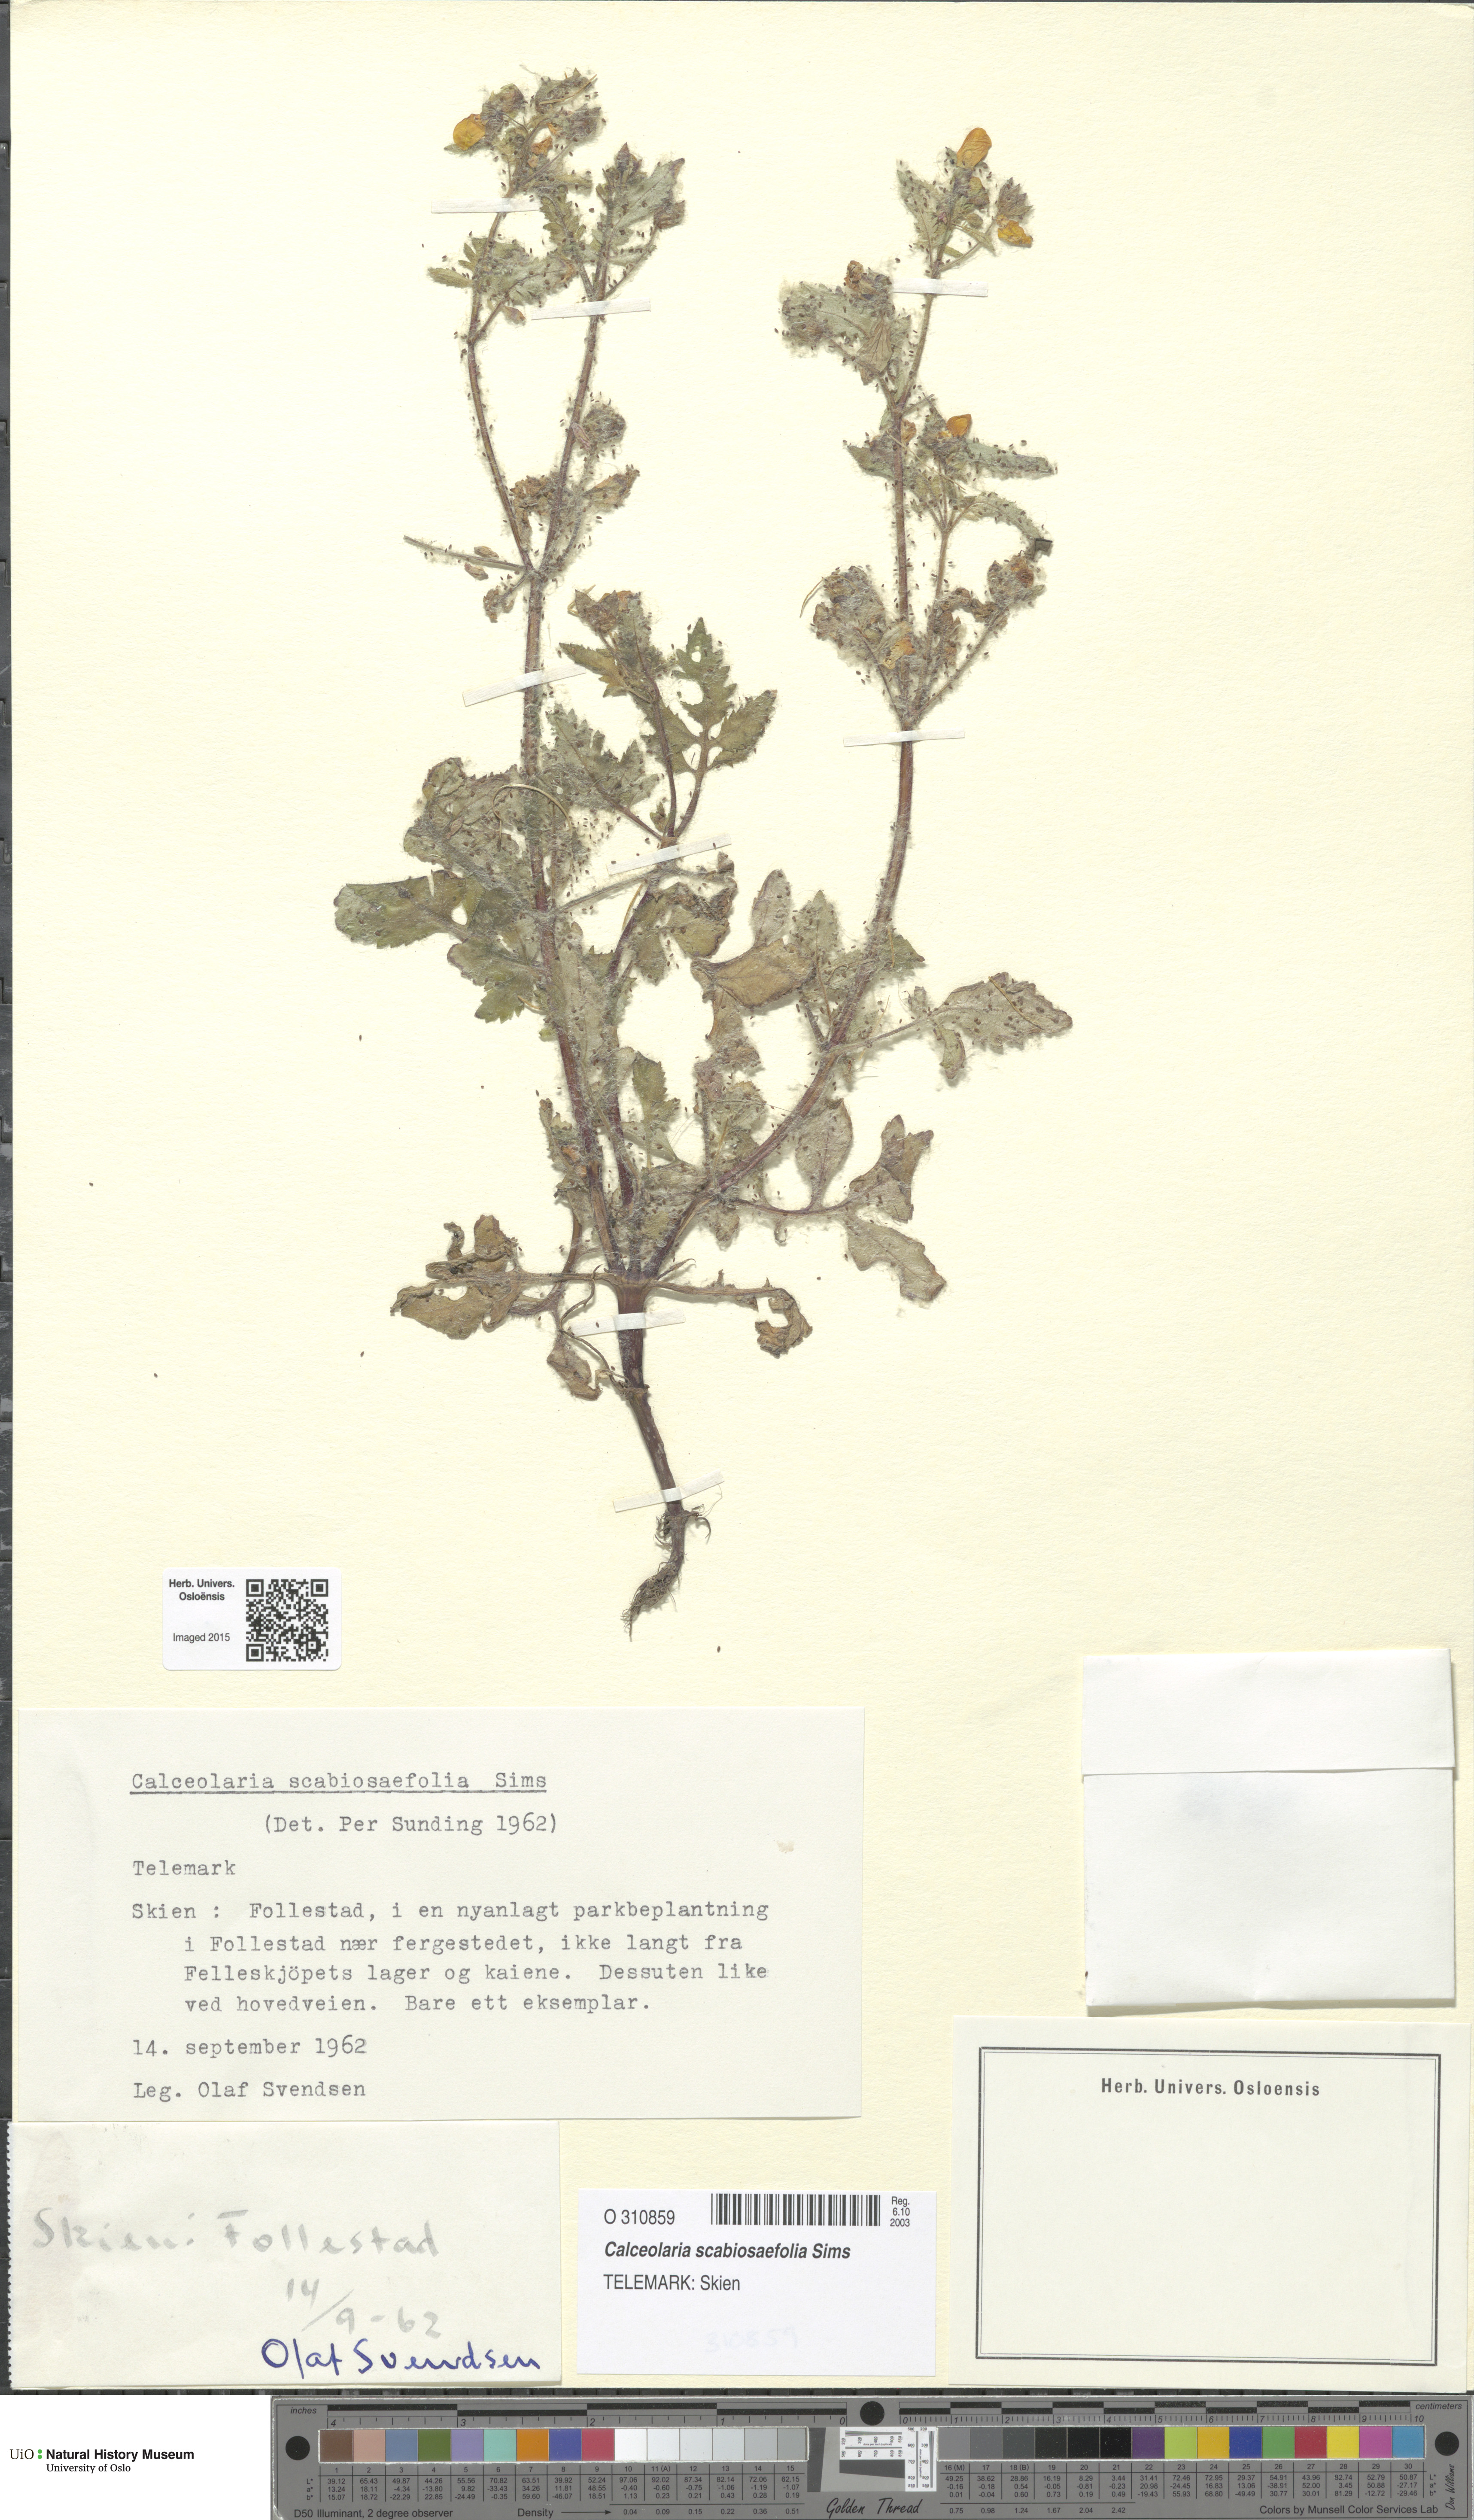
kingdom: Plantae
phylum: Tracheophyta
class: Magnoliopsida
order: Lamiales
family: Calceolariaceae
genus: Calceolaria
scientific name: Calceolaria scabiosifolia
